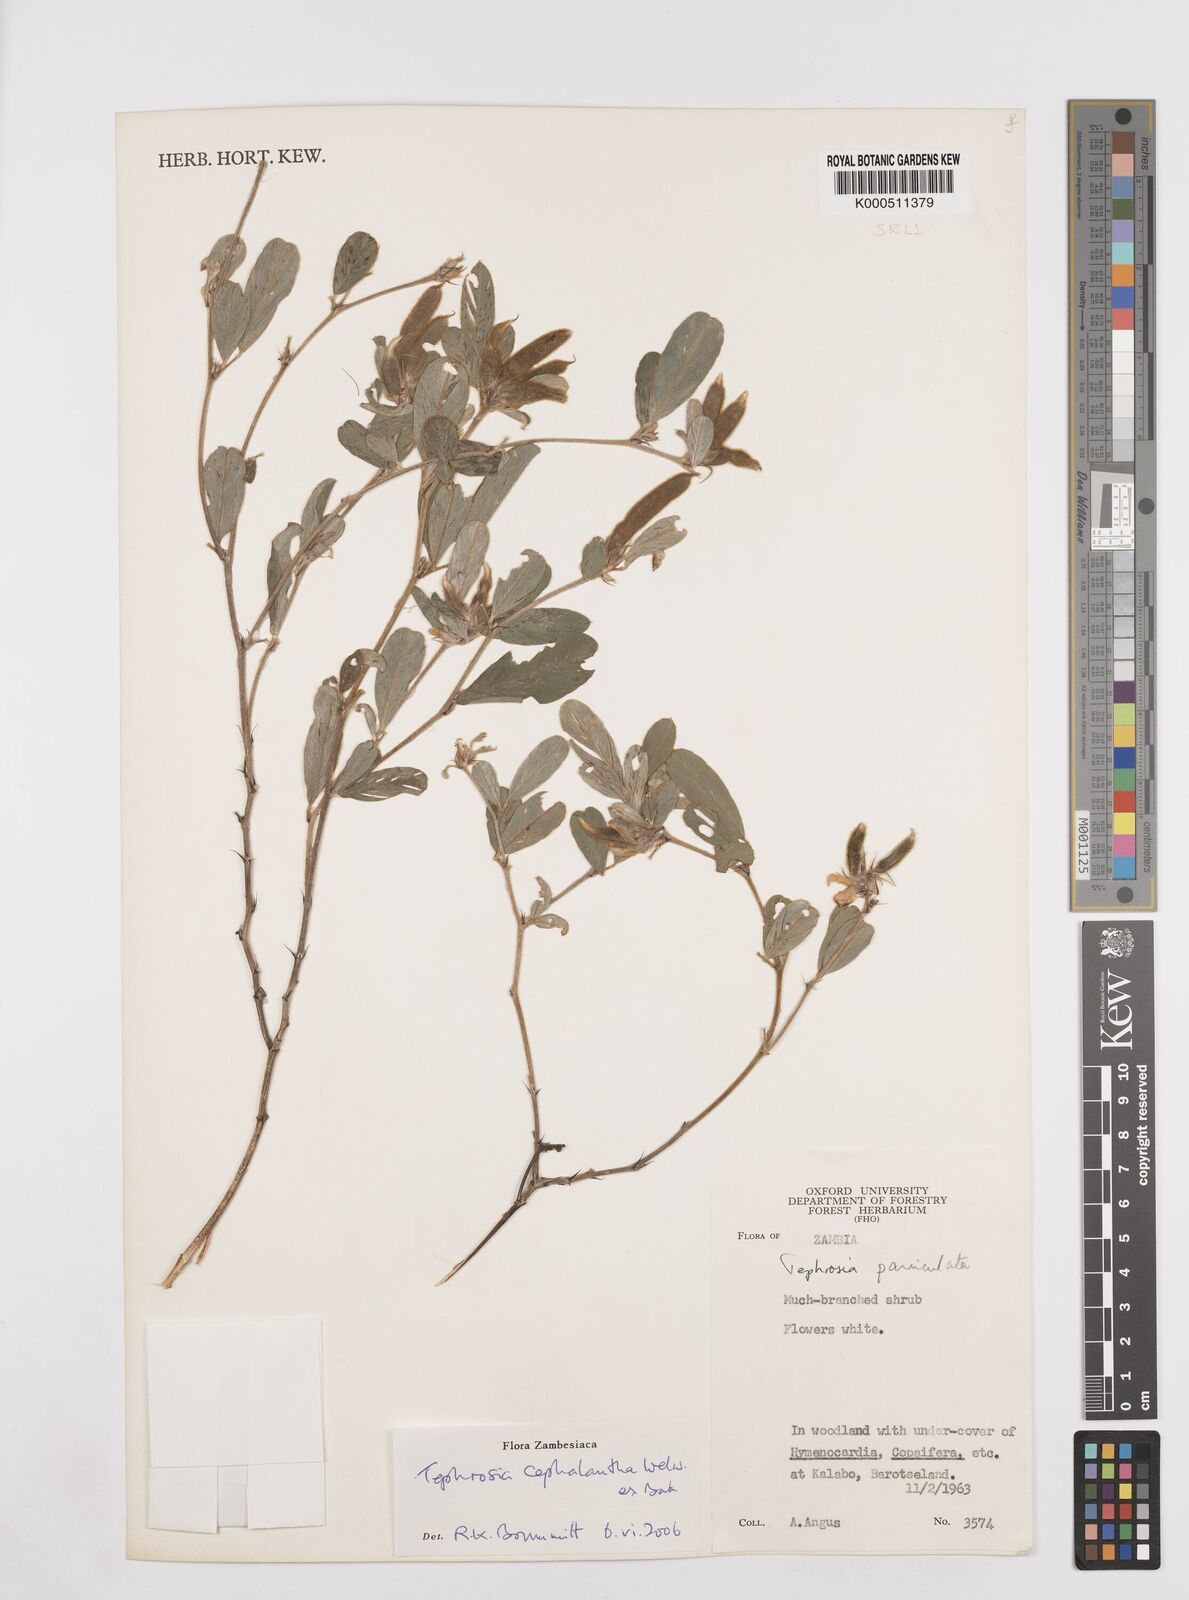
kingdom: Plantae
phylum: Tracheophyta
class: Magnoliopsida
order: Fabales
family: Fabaceae
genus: Tephrosia
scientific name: Tephrosia cephalantha
